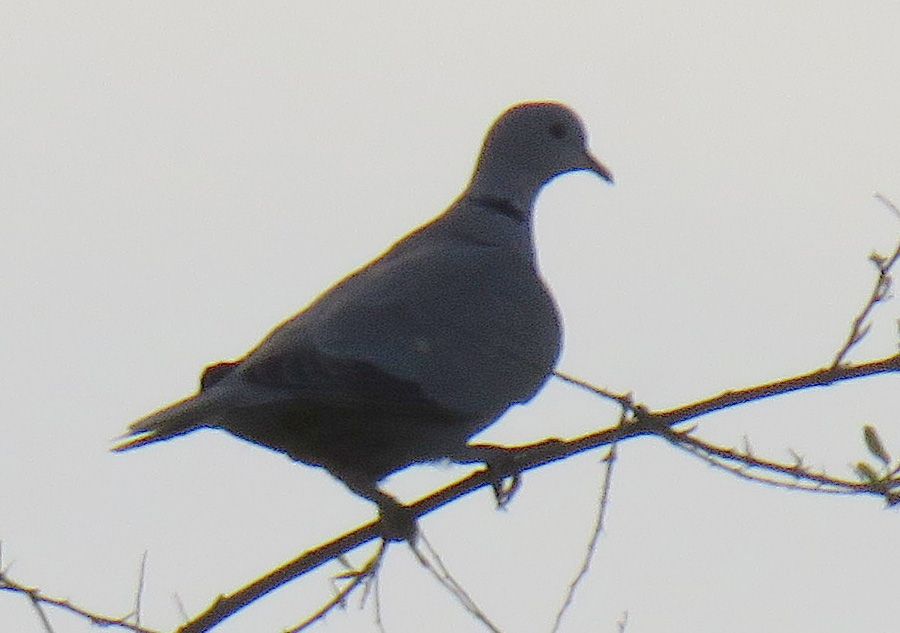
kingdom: Animalia
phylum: Chordata
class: Aves
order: Columbiformes
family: Columbidae
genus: Streptopelia
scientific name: Streptopelia decaocto
